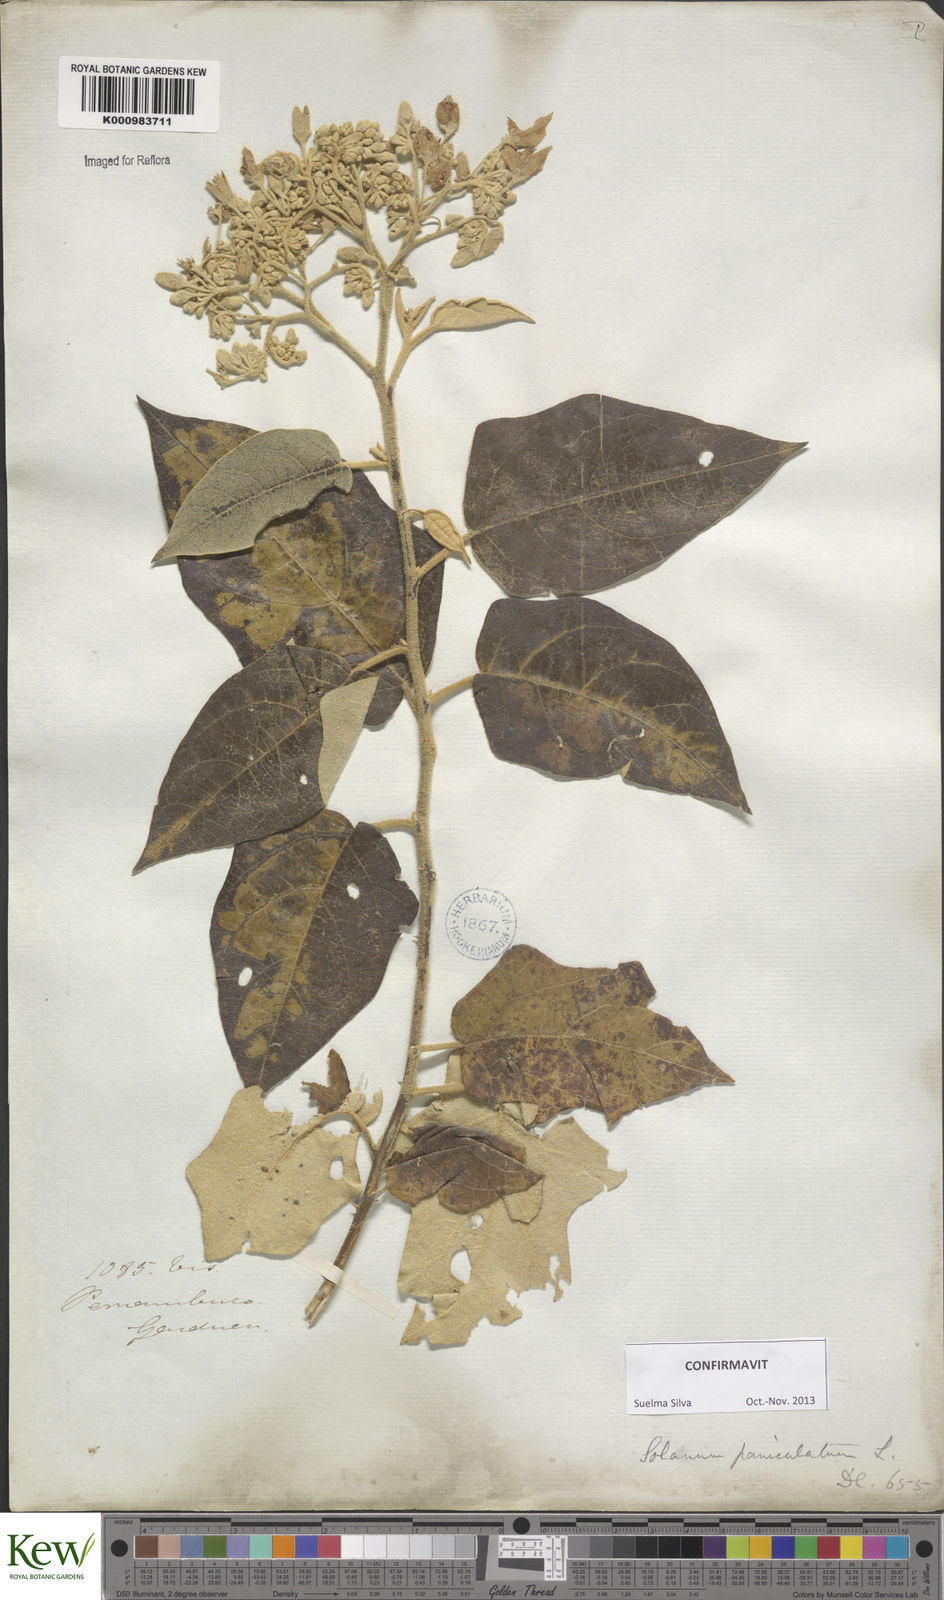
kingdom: Plantae
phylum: Tracheophyta
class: Magnoliopsida
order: Solanales
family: Solanaceae
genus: Solanum
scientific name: Solanum paniculatum
